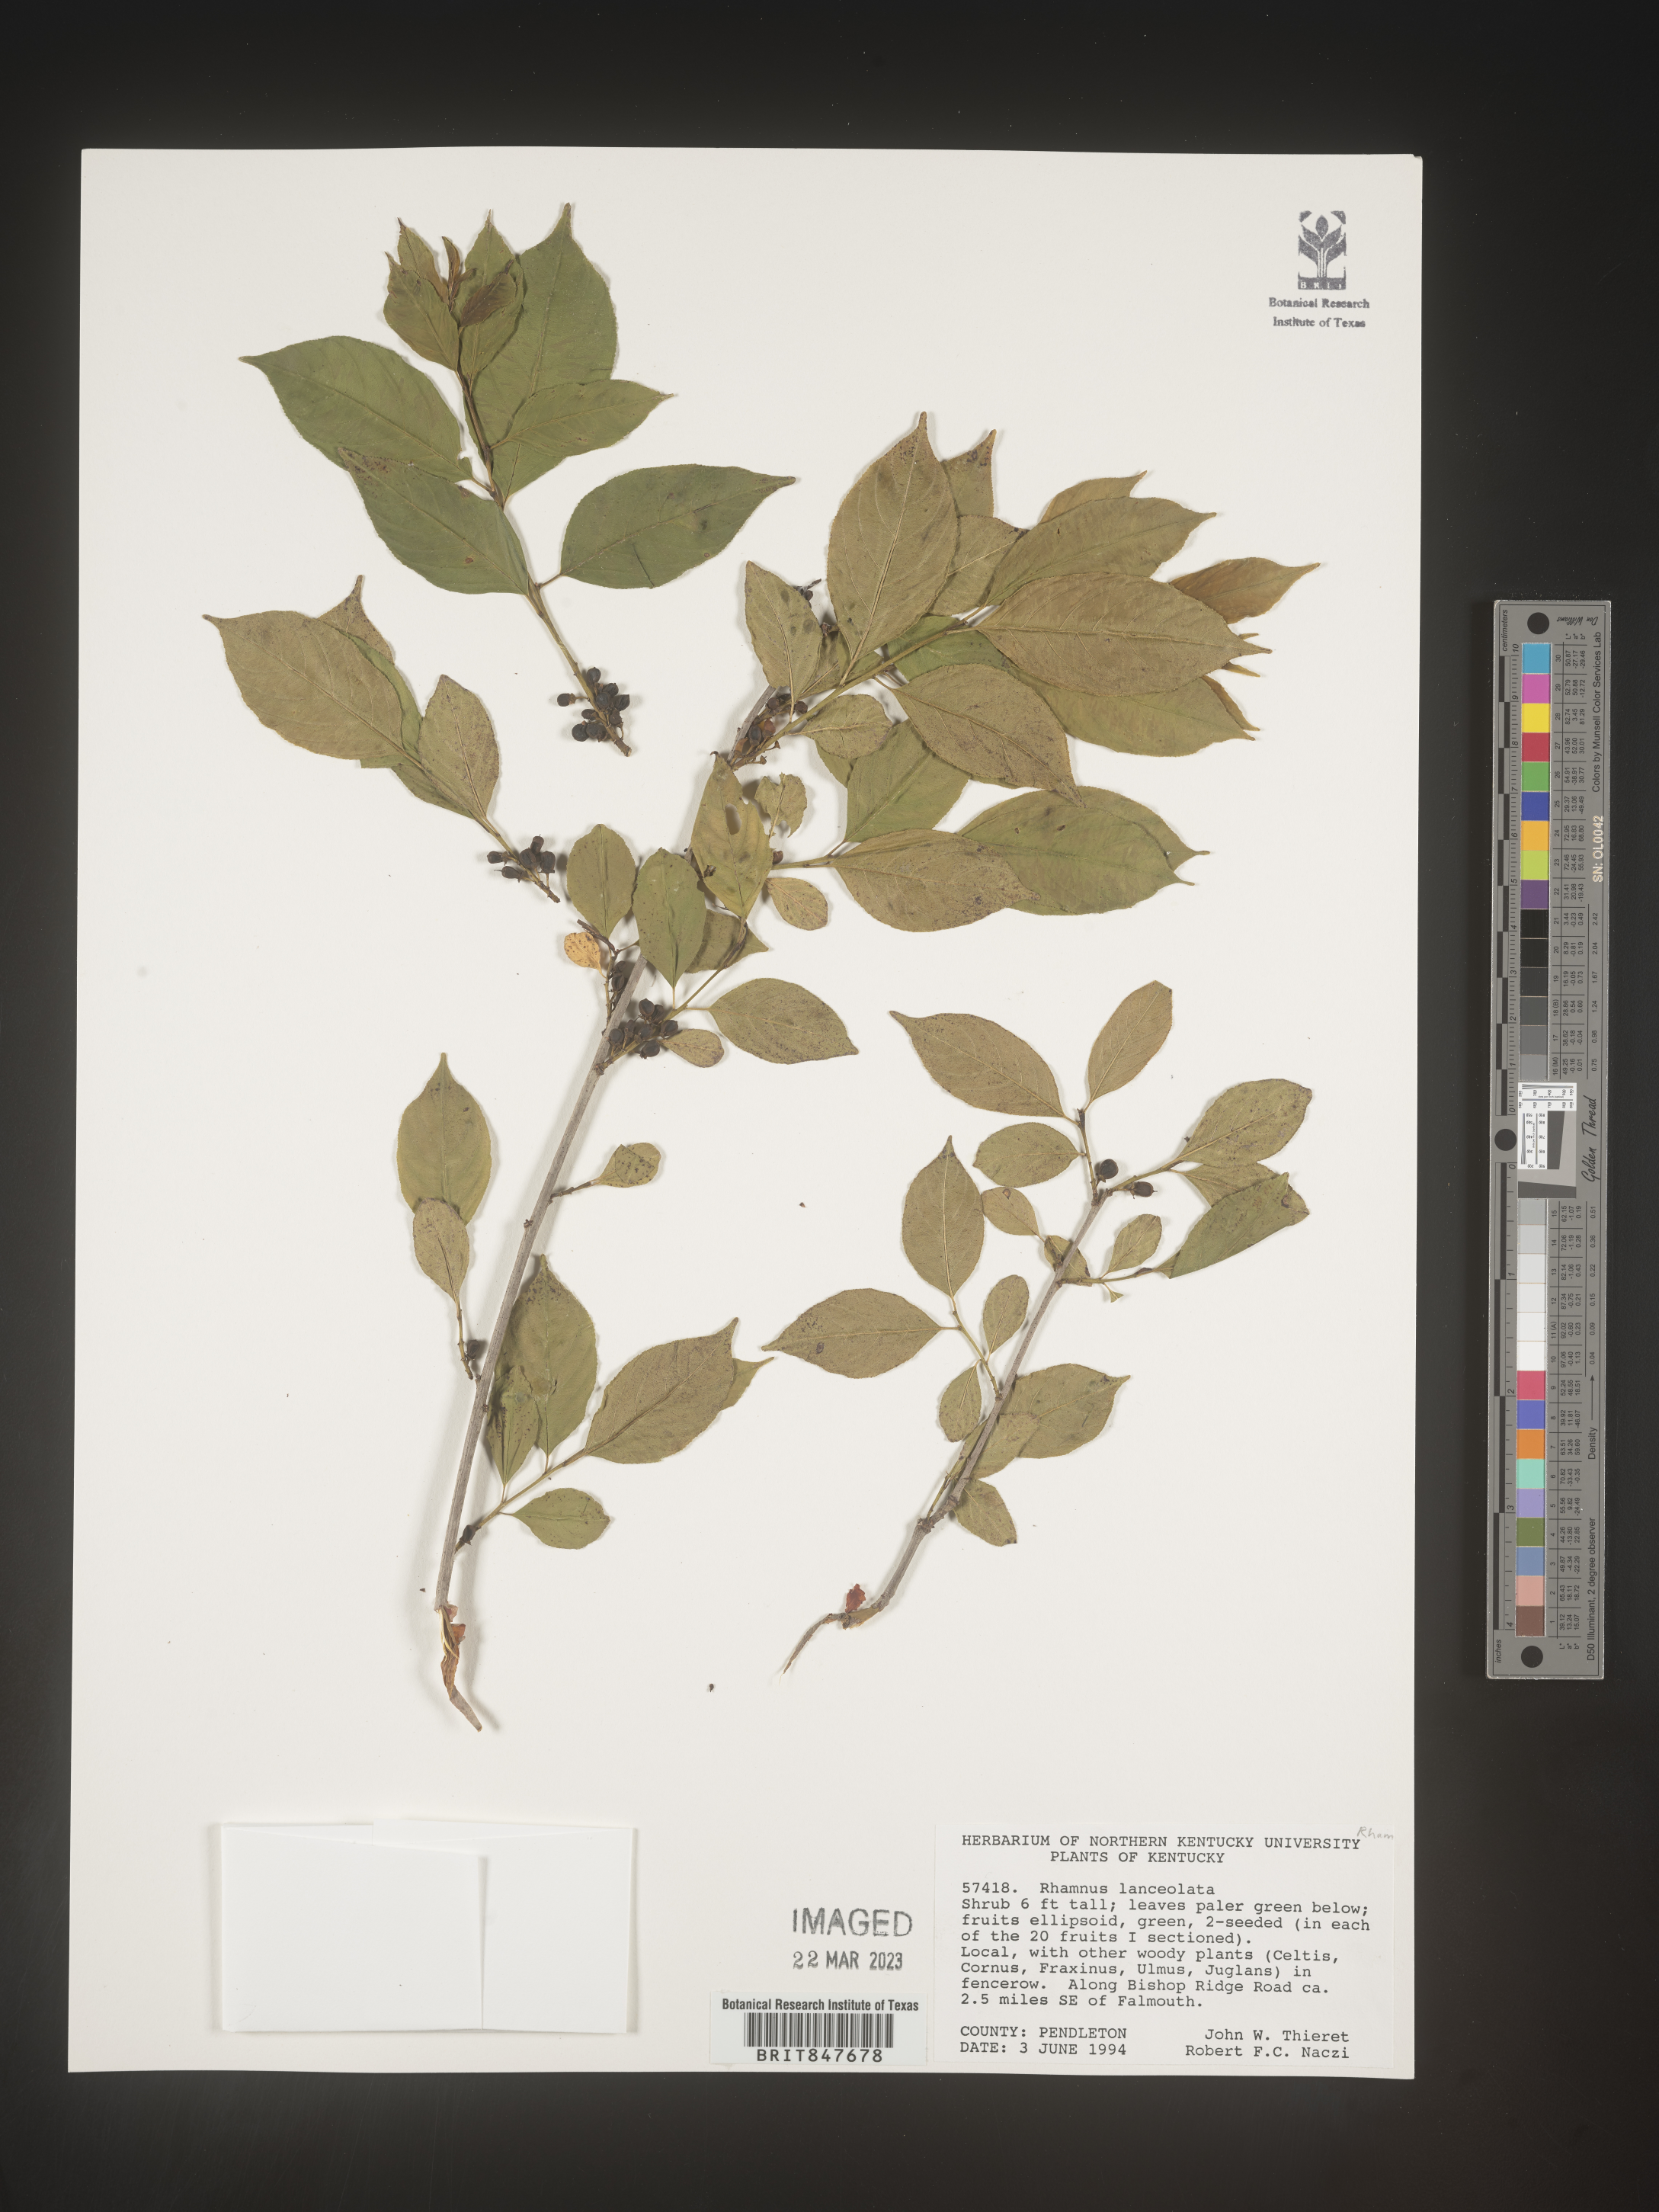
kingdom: Plantae
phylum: Tracheophyta
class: Magnoliopsida
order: Rosales
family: Rhamnaceae
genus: Endotropis
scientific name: Endotropis lanceolata
